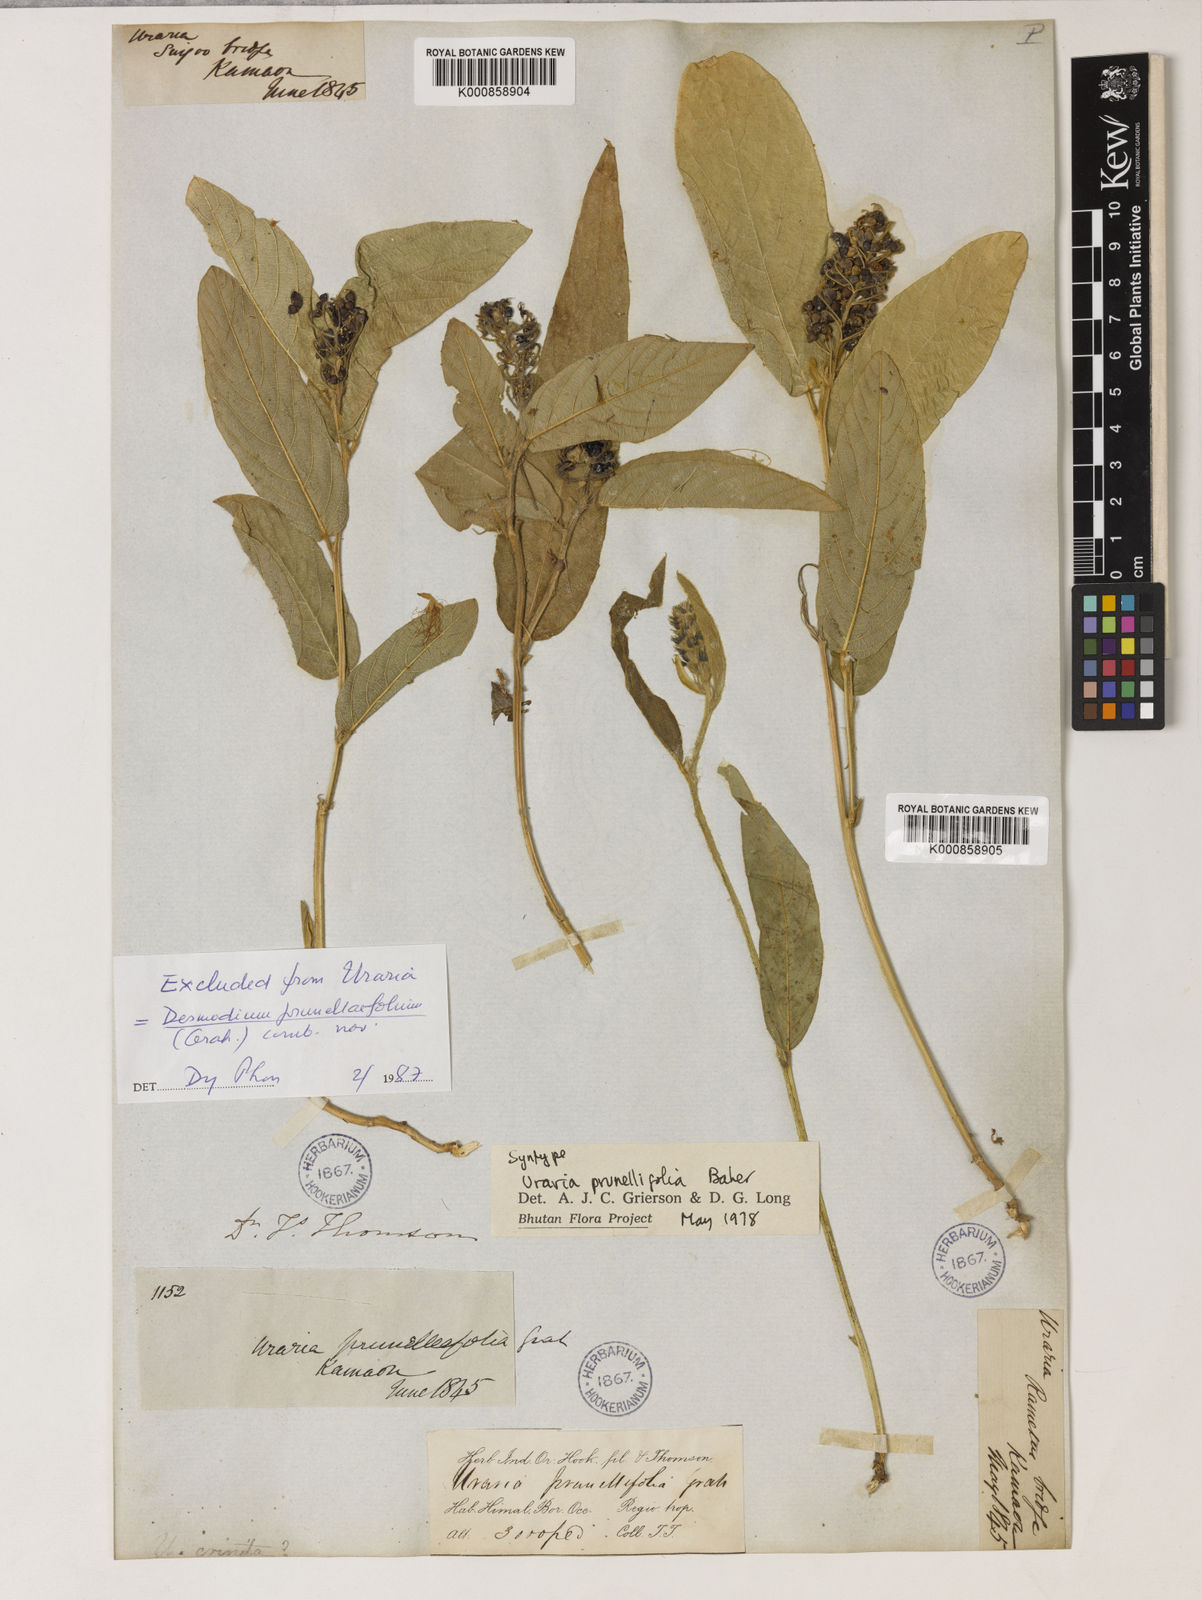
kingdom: Plantae
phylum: Tracheophyta
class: Magnoliopsida
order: Fabales
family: Fabaceae
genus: Uraria
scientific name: Uraria
